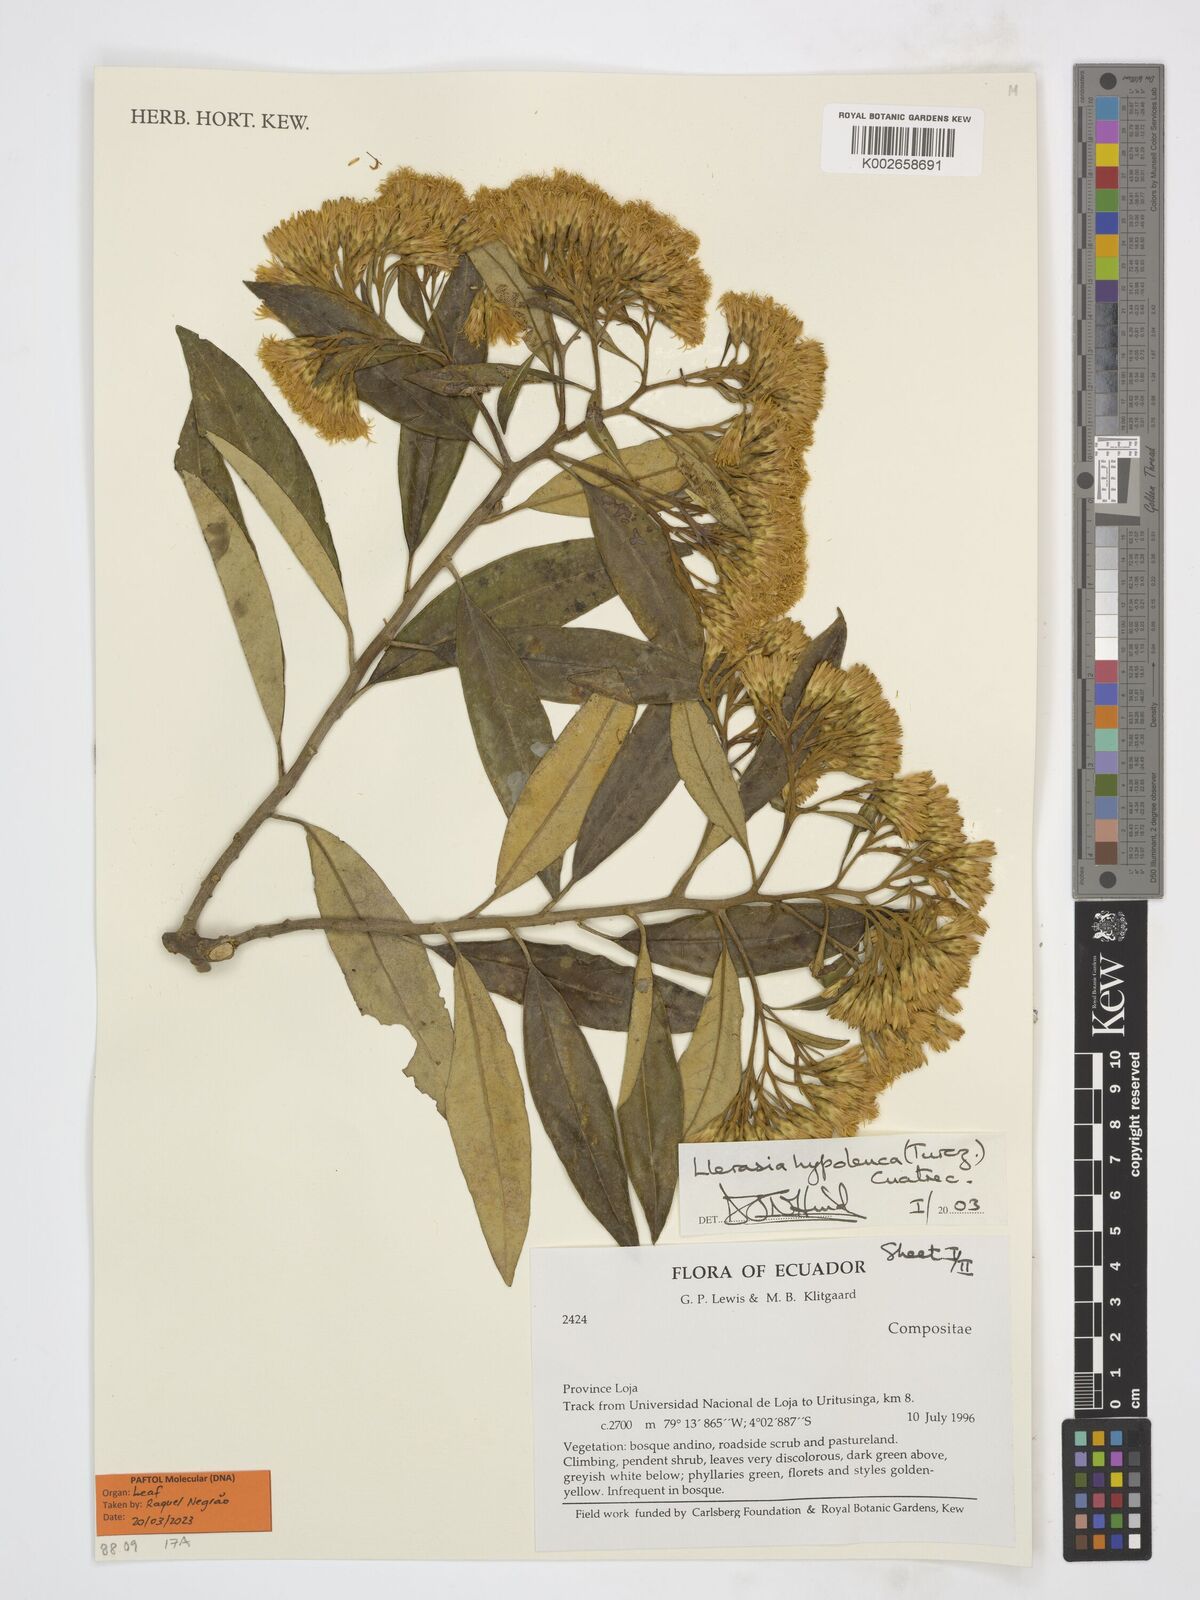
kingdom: Plantae
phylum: Tracheophyta
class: Magnoliopsida
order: Asterales
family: Asteraceae
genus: Llerasia
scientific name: Llerasia hypoleuca
